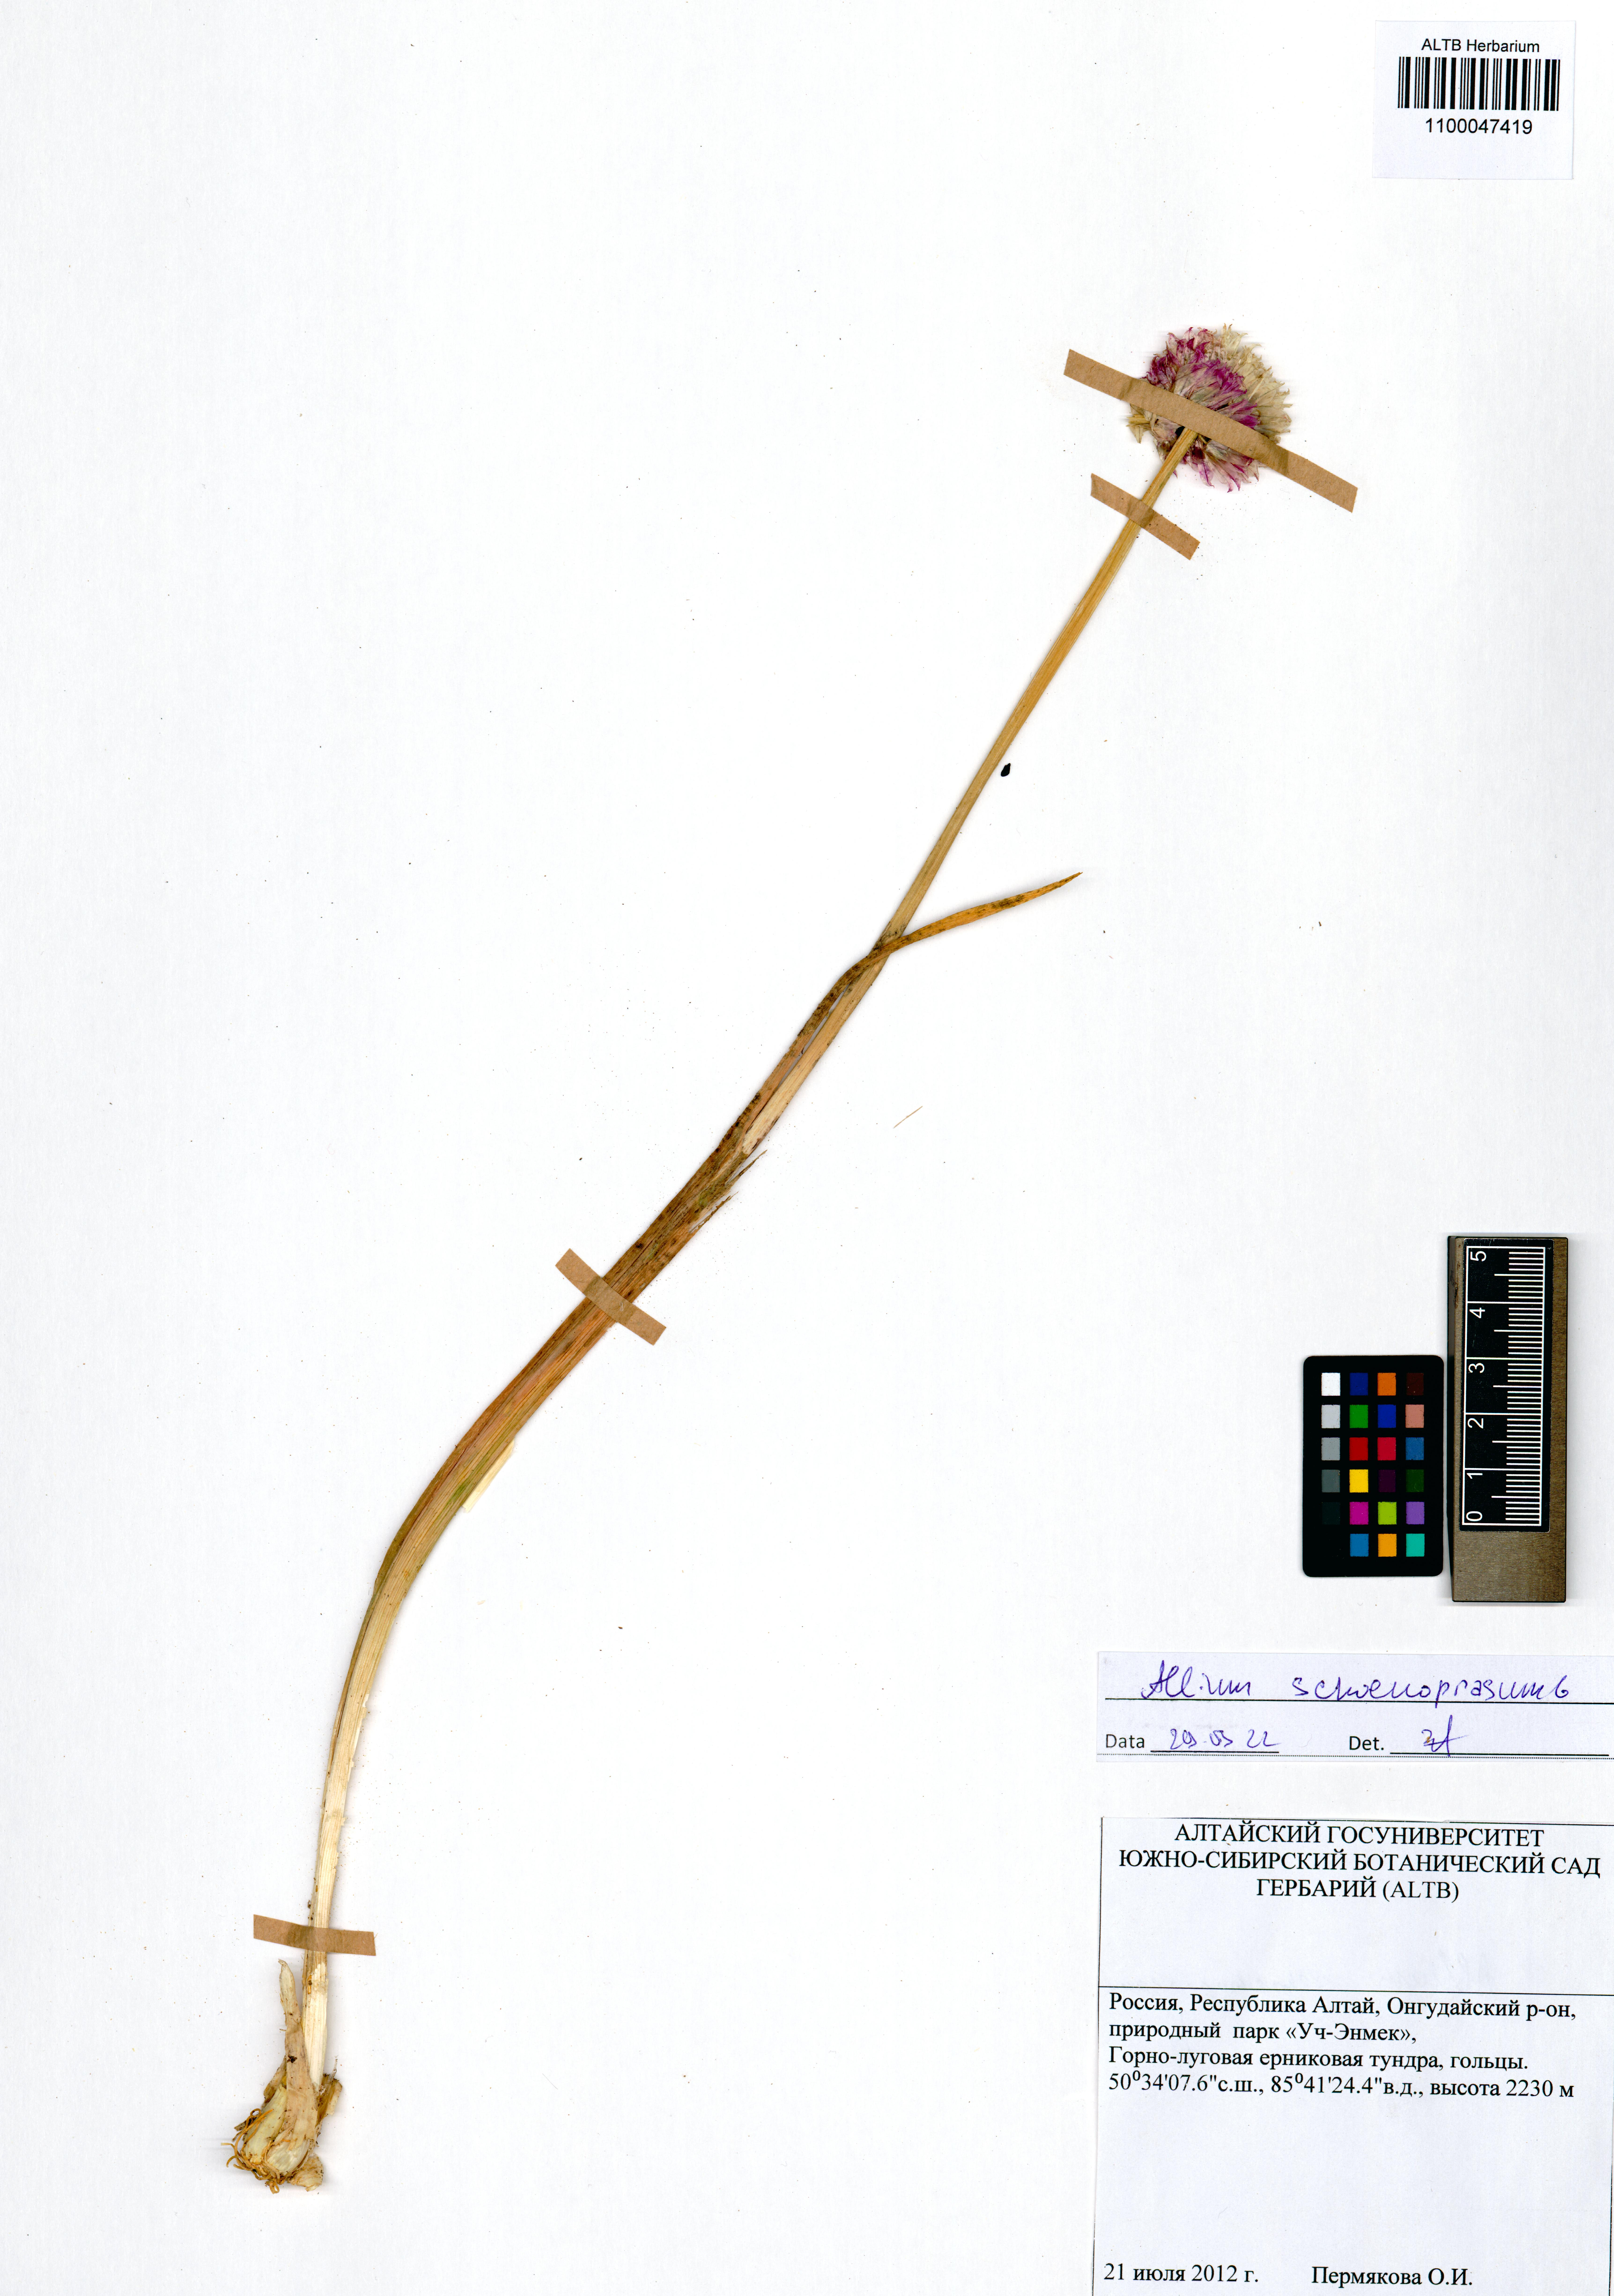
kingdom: Plantae
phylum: Tracheophyta
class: Liliopsida
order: Asparagales
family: Amaryllidaceae
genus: Allium
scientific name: Allium schoenoprasum
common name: Chives
